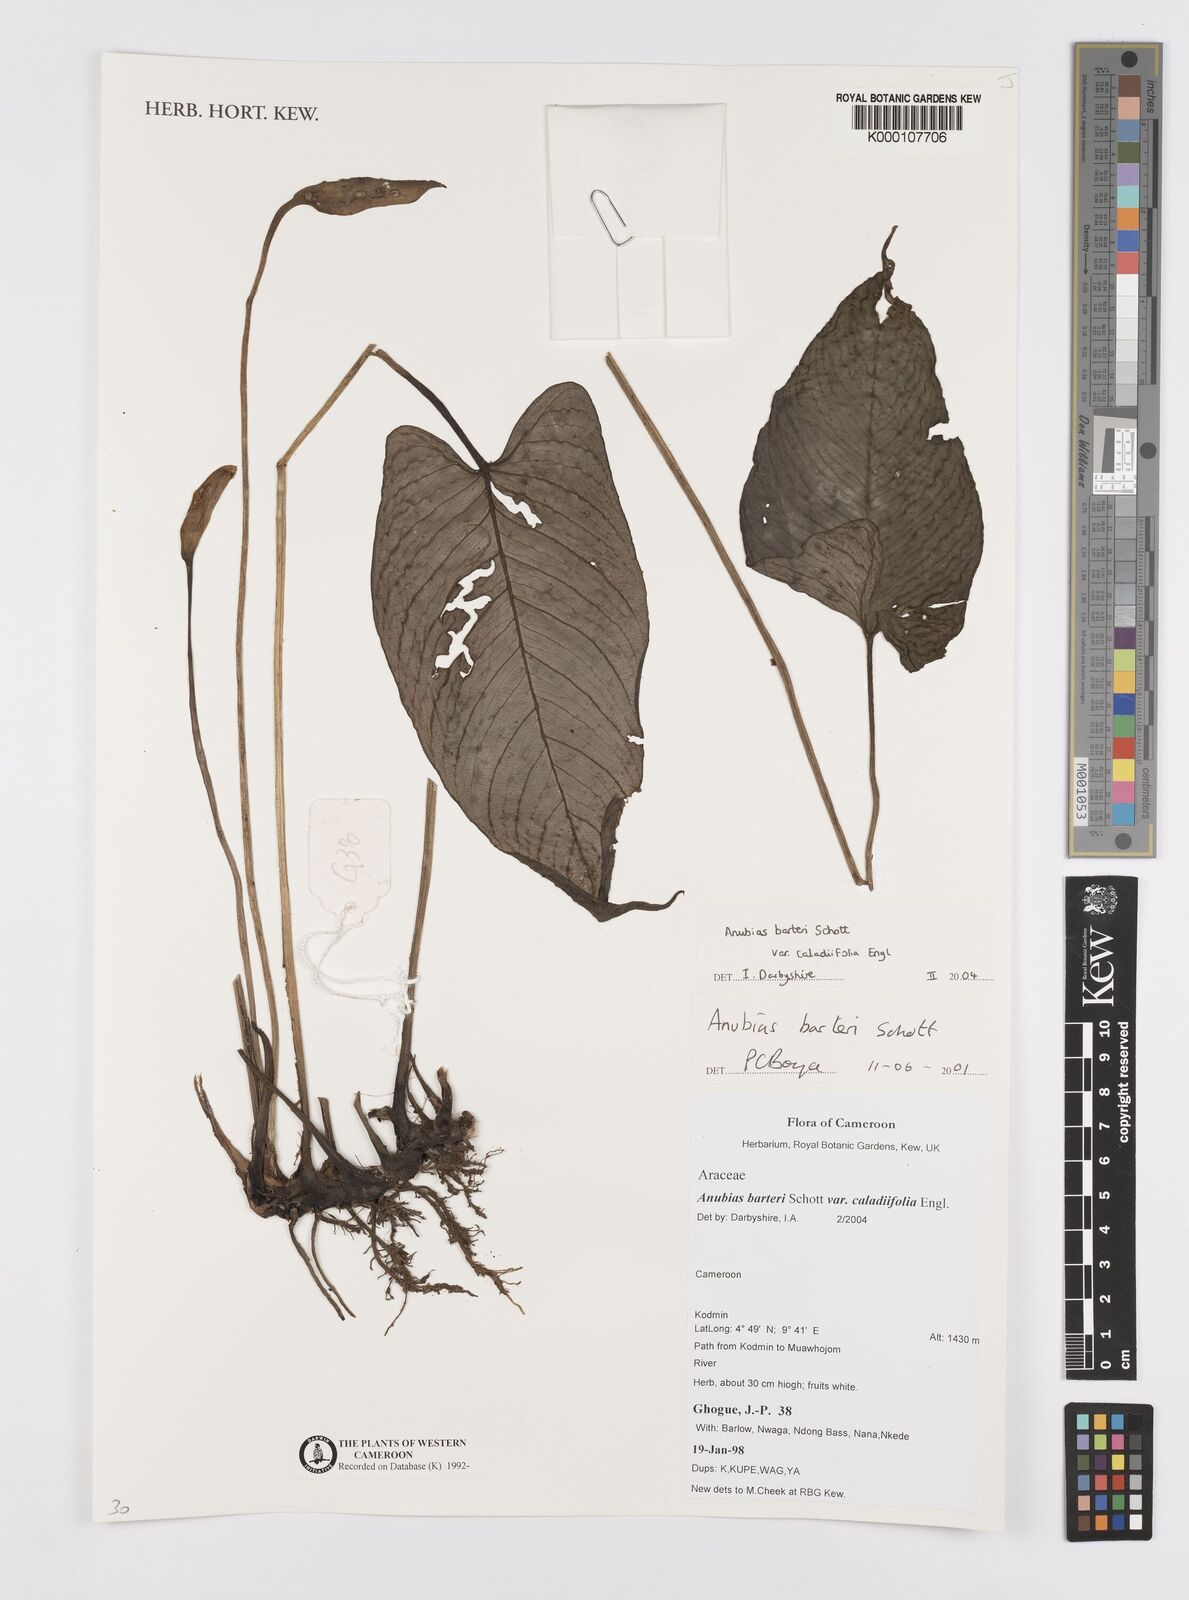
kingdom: Plantae
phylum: Tracheophyta
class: Liliopsida
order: Alismatales
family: Araceae
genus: Anubias
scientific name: Anubias barteri
